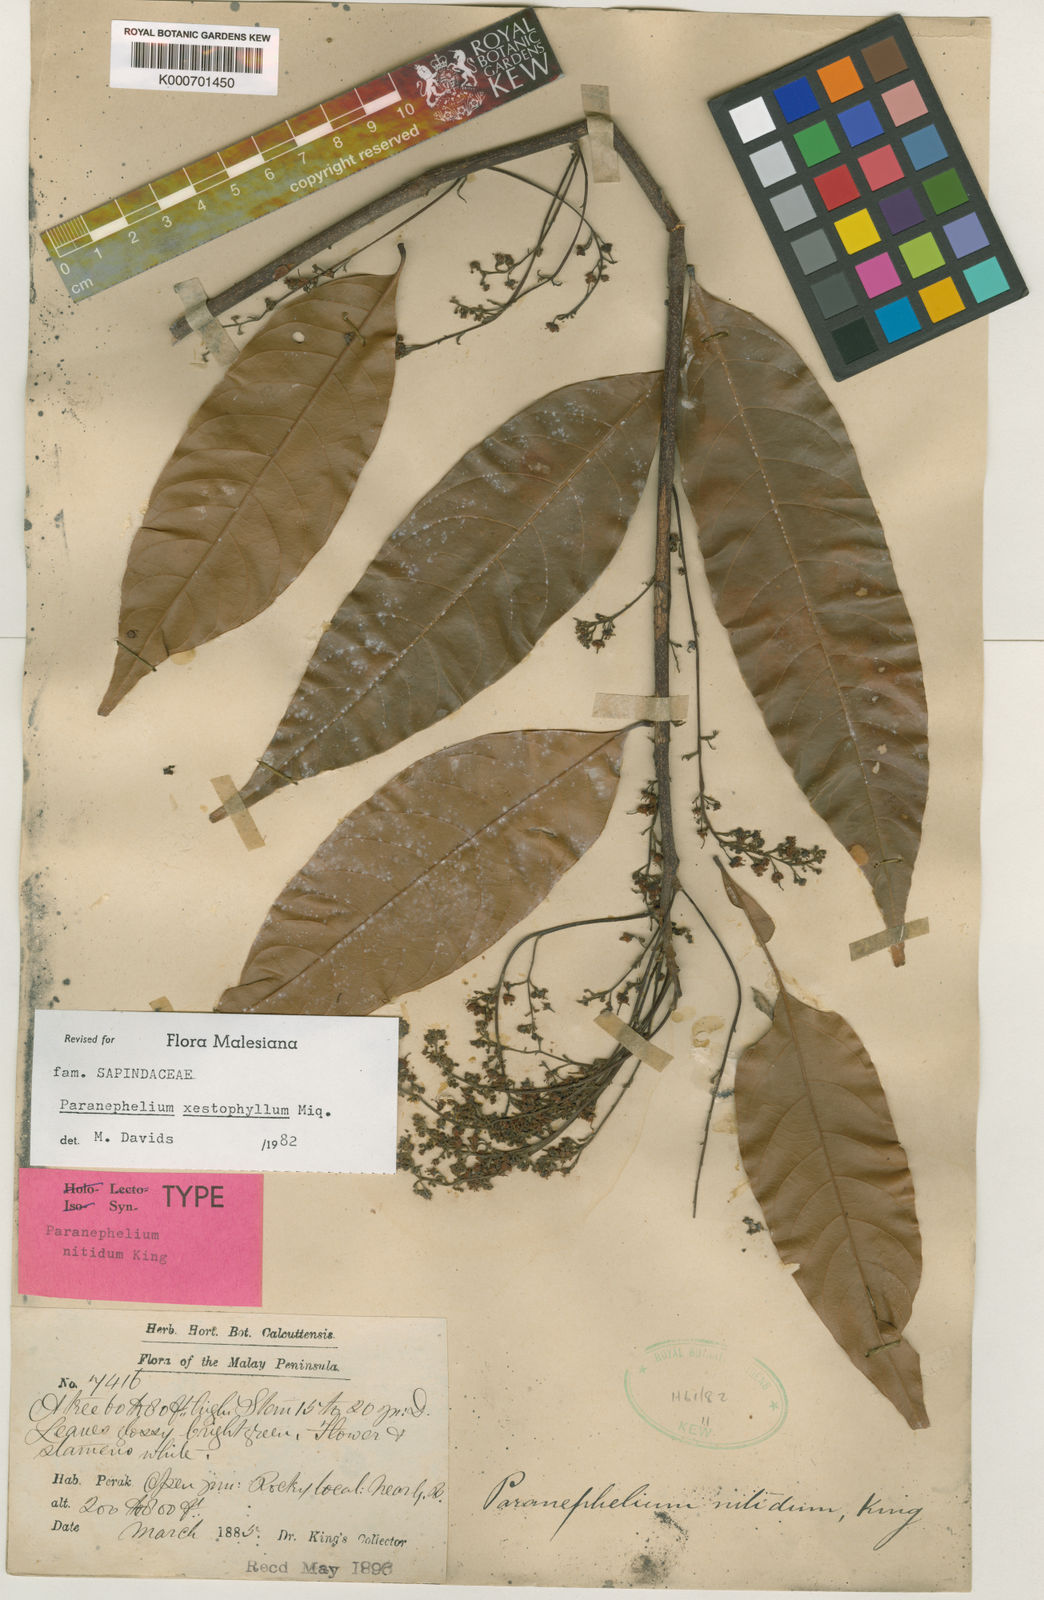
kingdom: Plantae
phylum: Tracheophyta
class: Magnoliopsida
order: Sapindales
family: Sapindaceae
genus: Paranephelium
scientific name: Paranephelium xestophyllum
